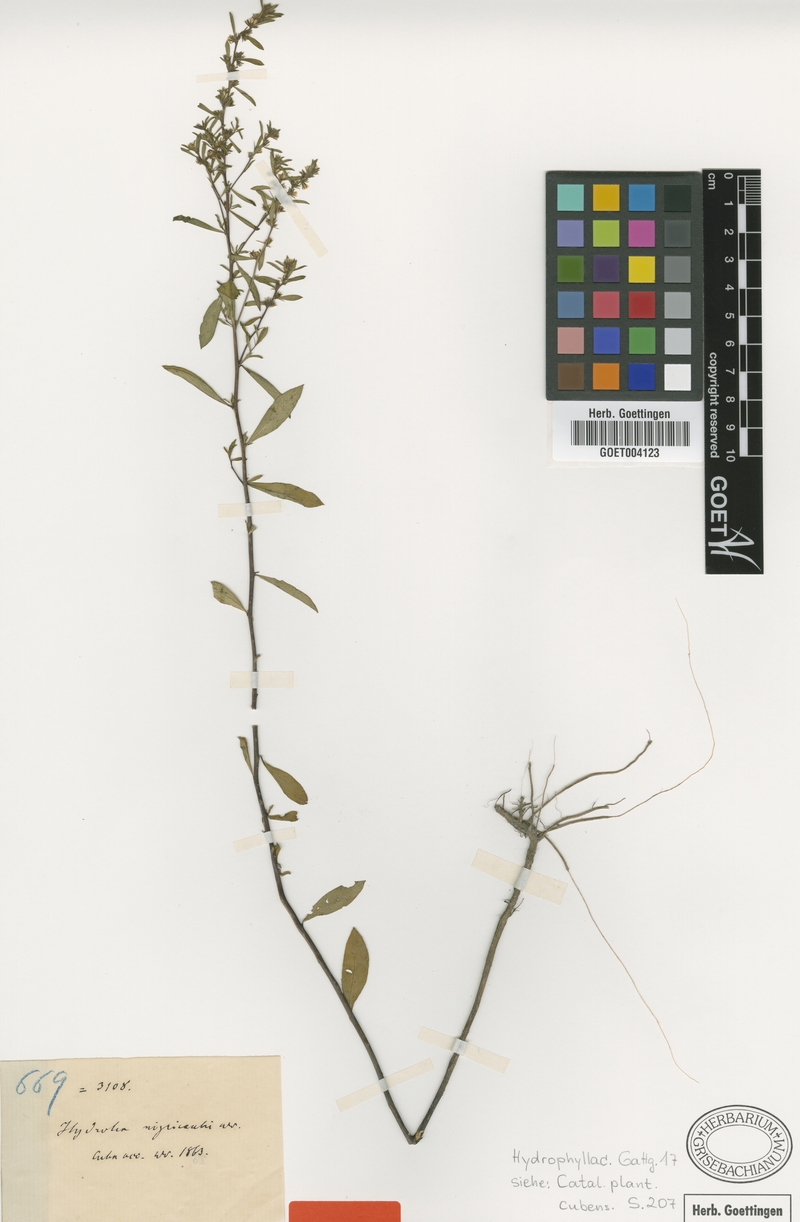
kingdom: Plantae
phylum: Tracheophyta
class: Magnoliopsida
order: Boraginales
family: Namaceae
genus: Nama
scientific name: Nama cubana
